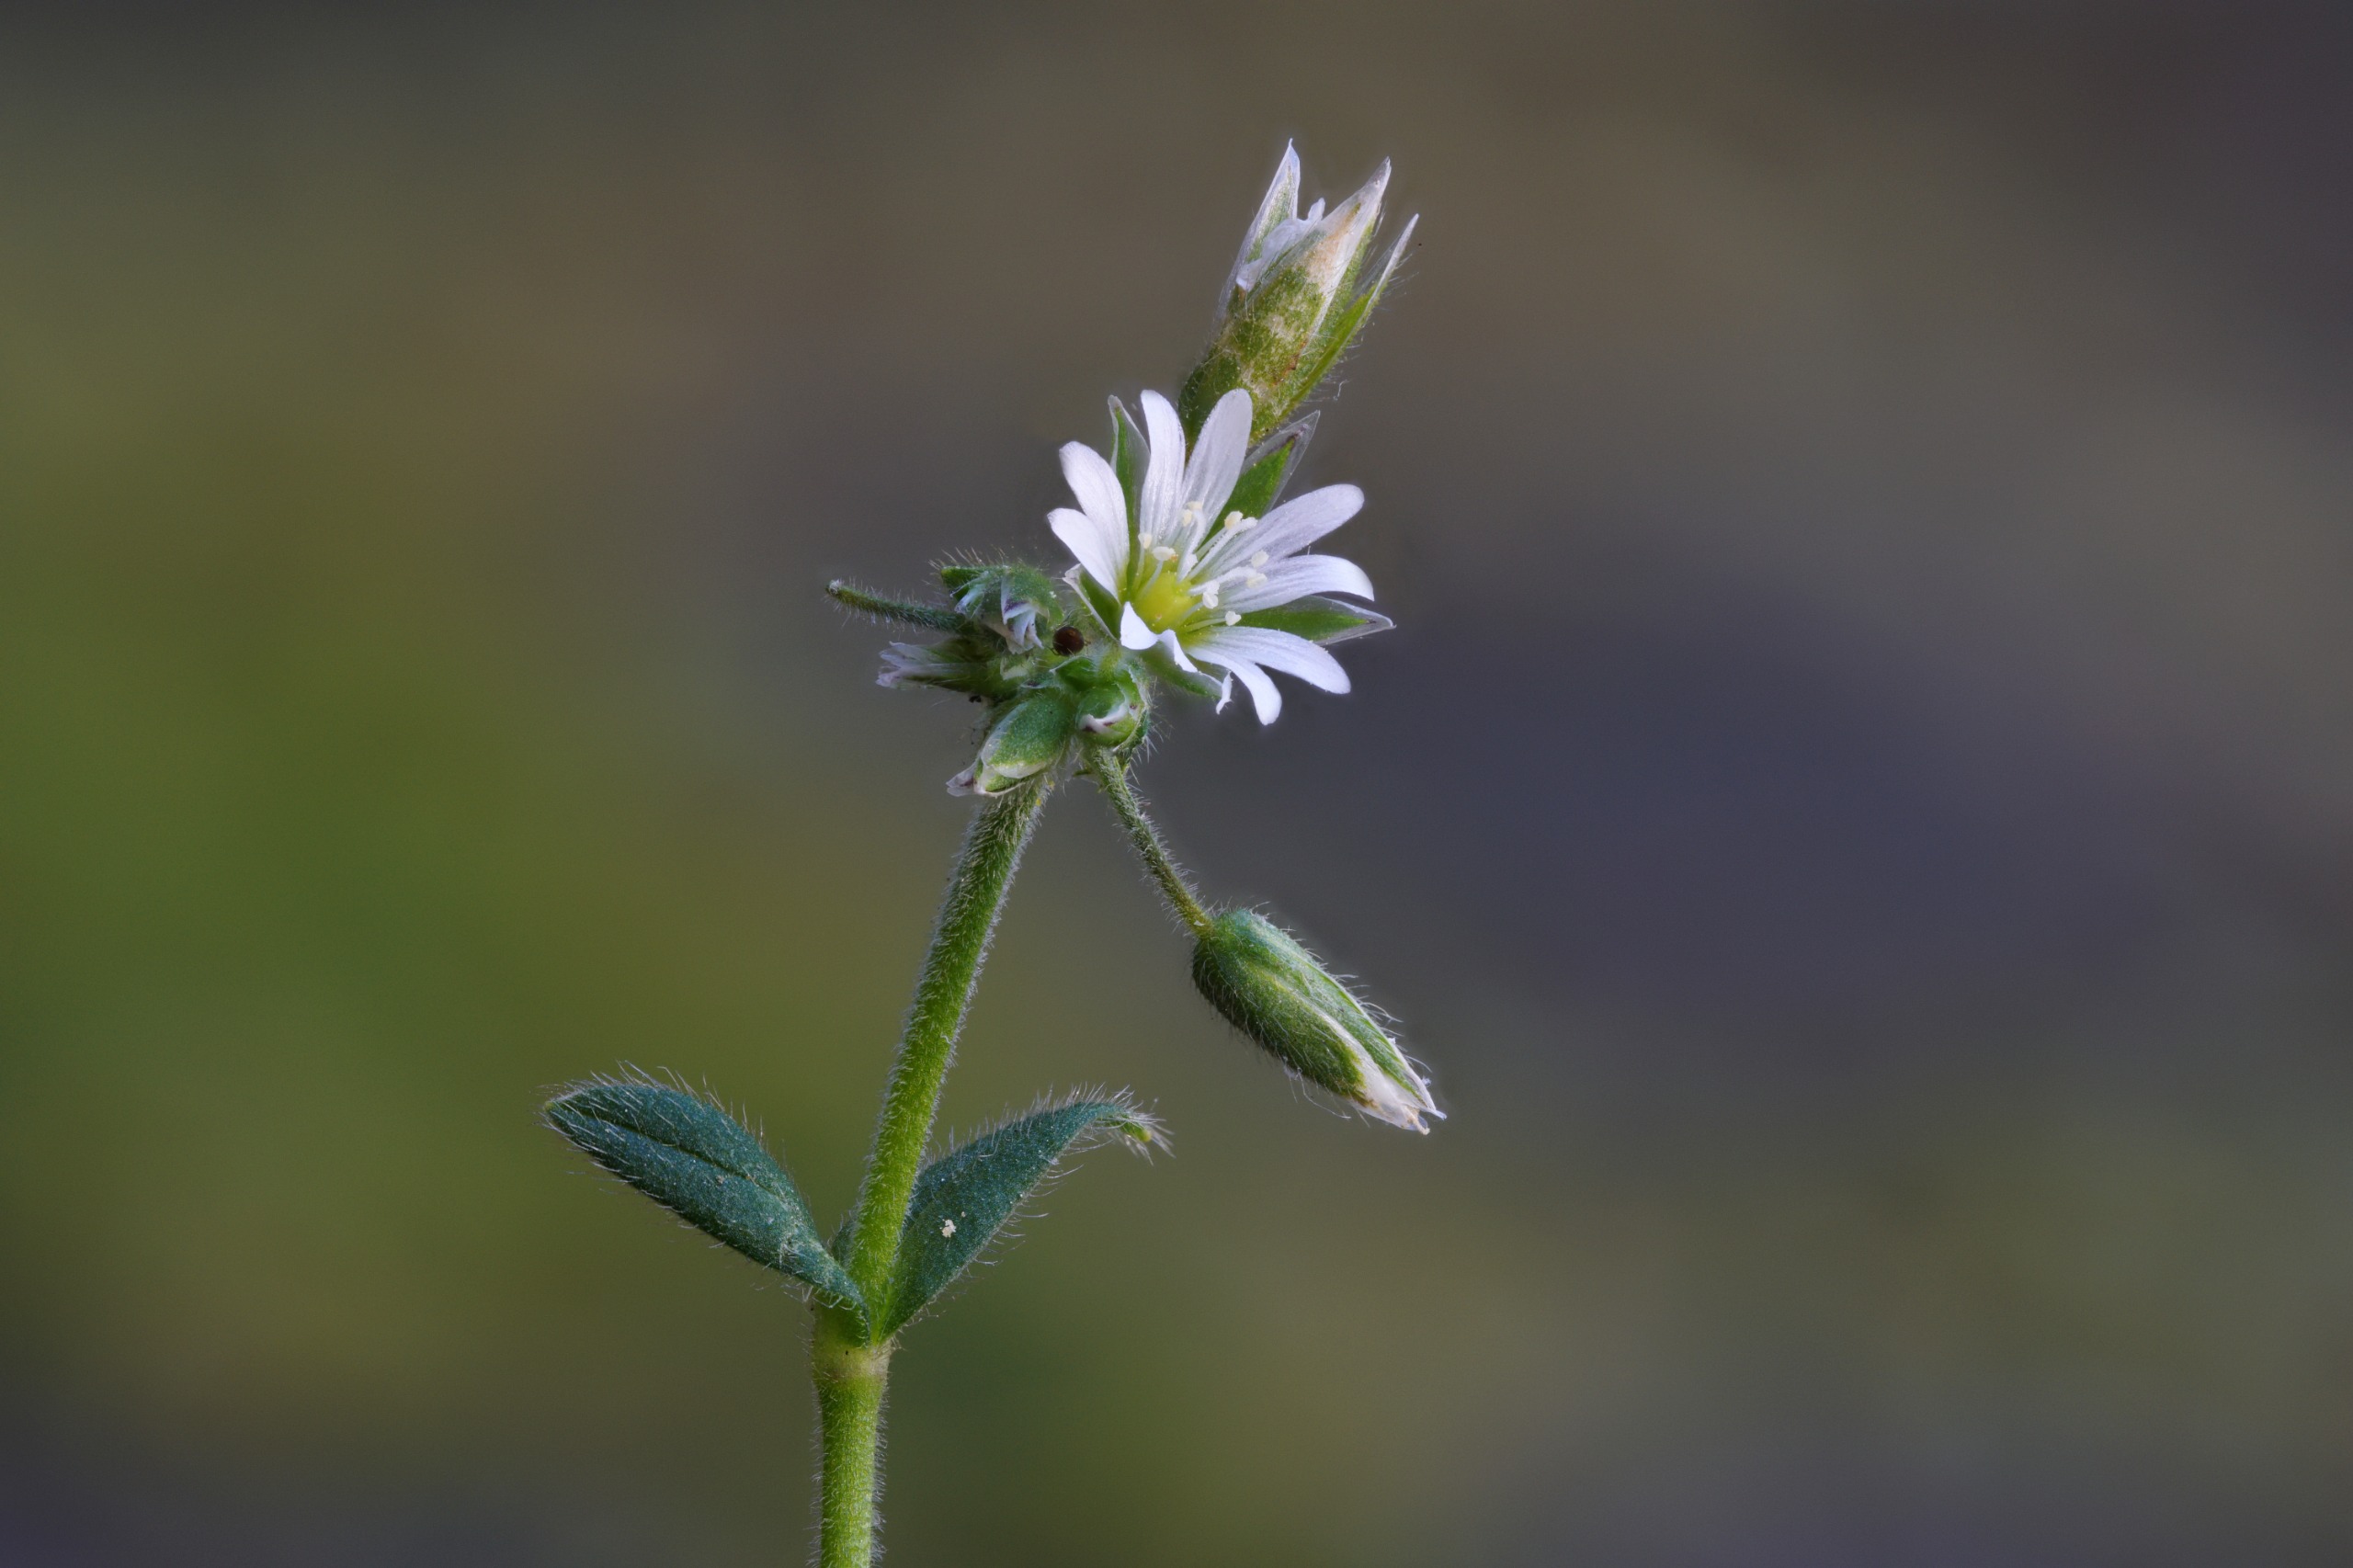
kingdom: Plantae
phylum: Tracheophyta
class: Magnoliopsida
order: Caryophyllales
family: Caryophyllaceae
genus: Cerastium
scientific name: Cerastium fontanum
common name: Almindelig hønsetarm
